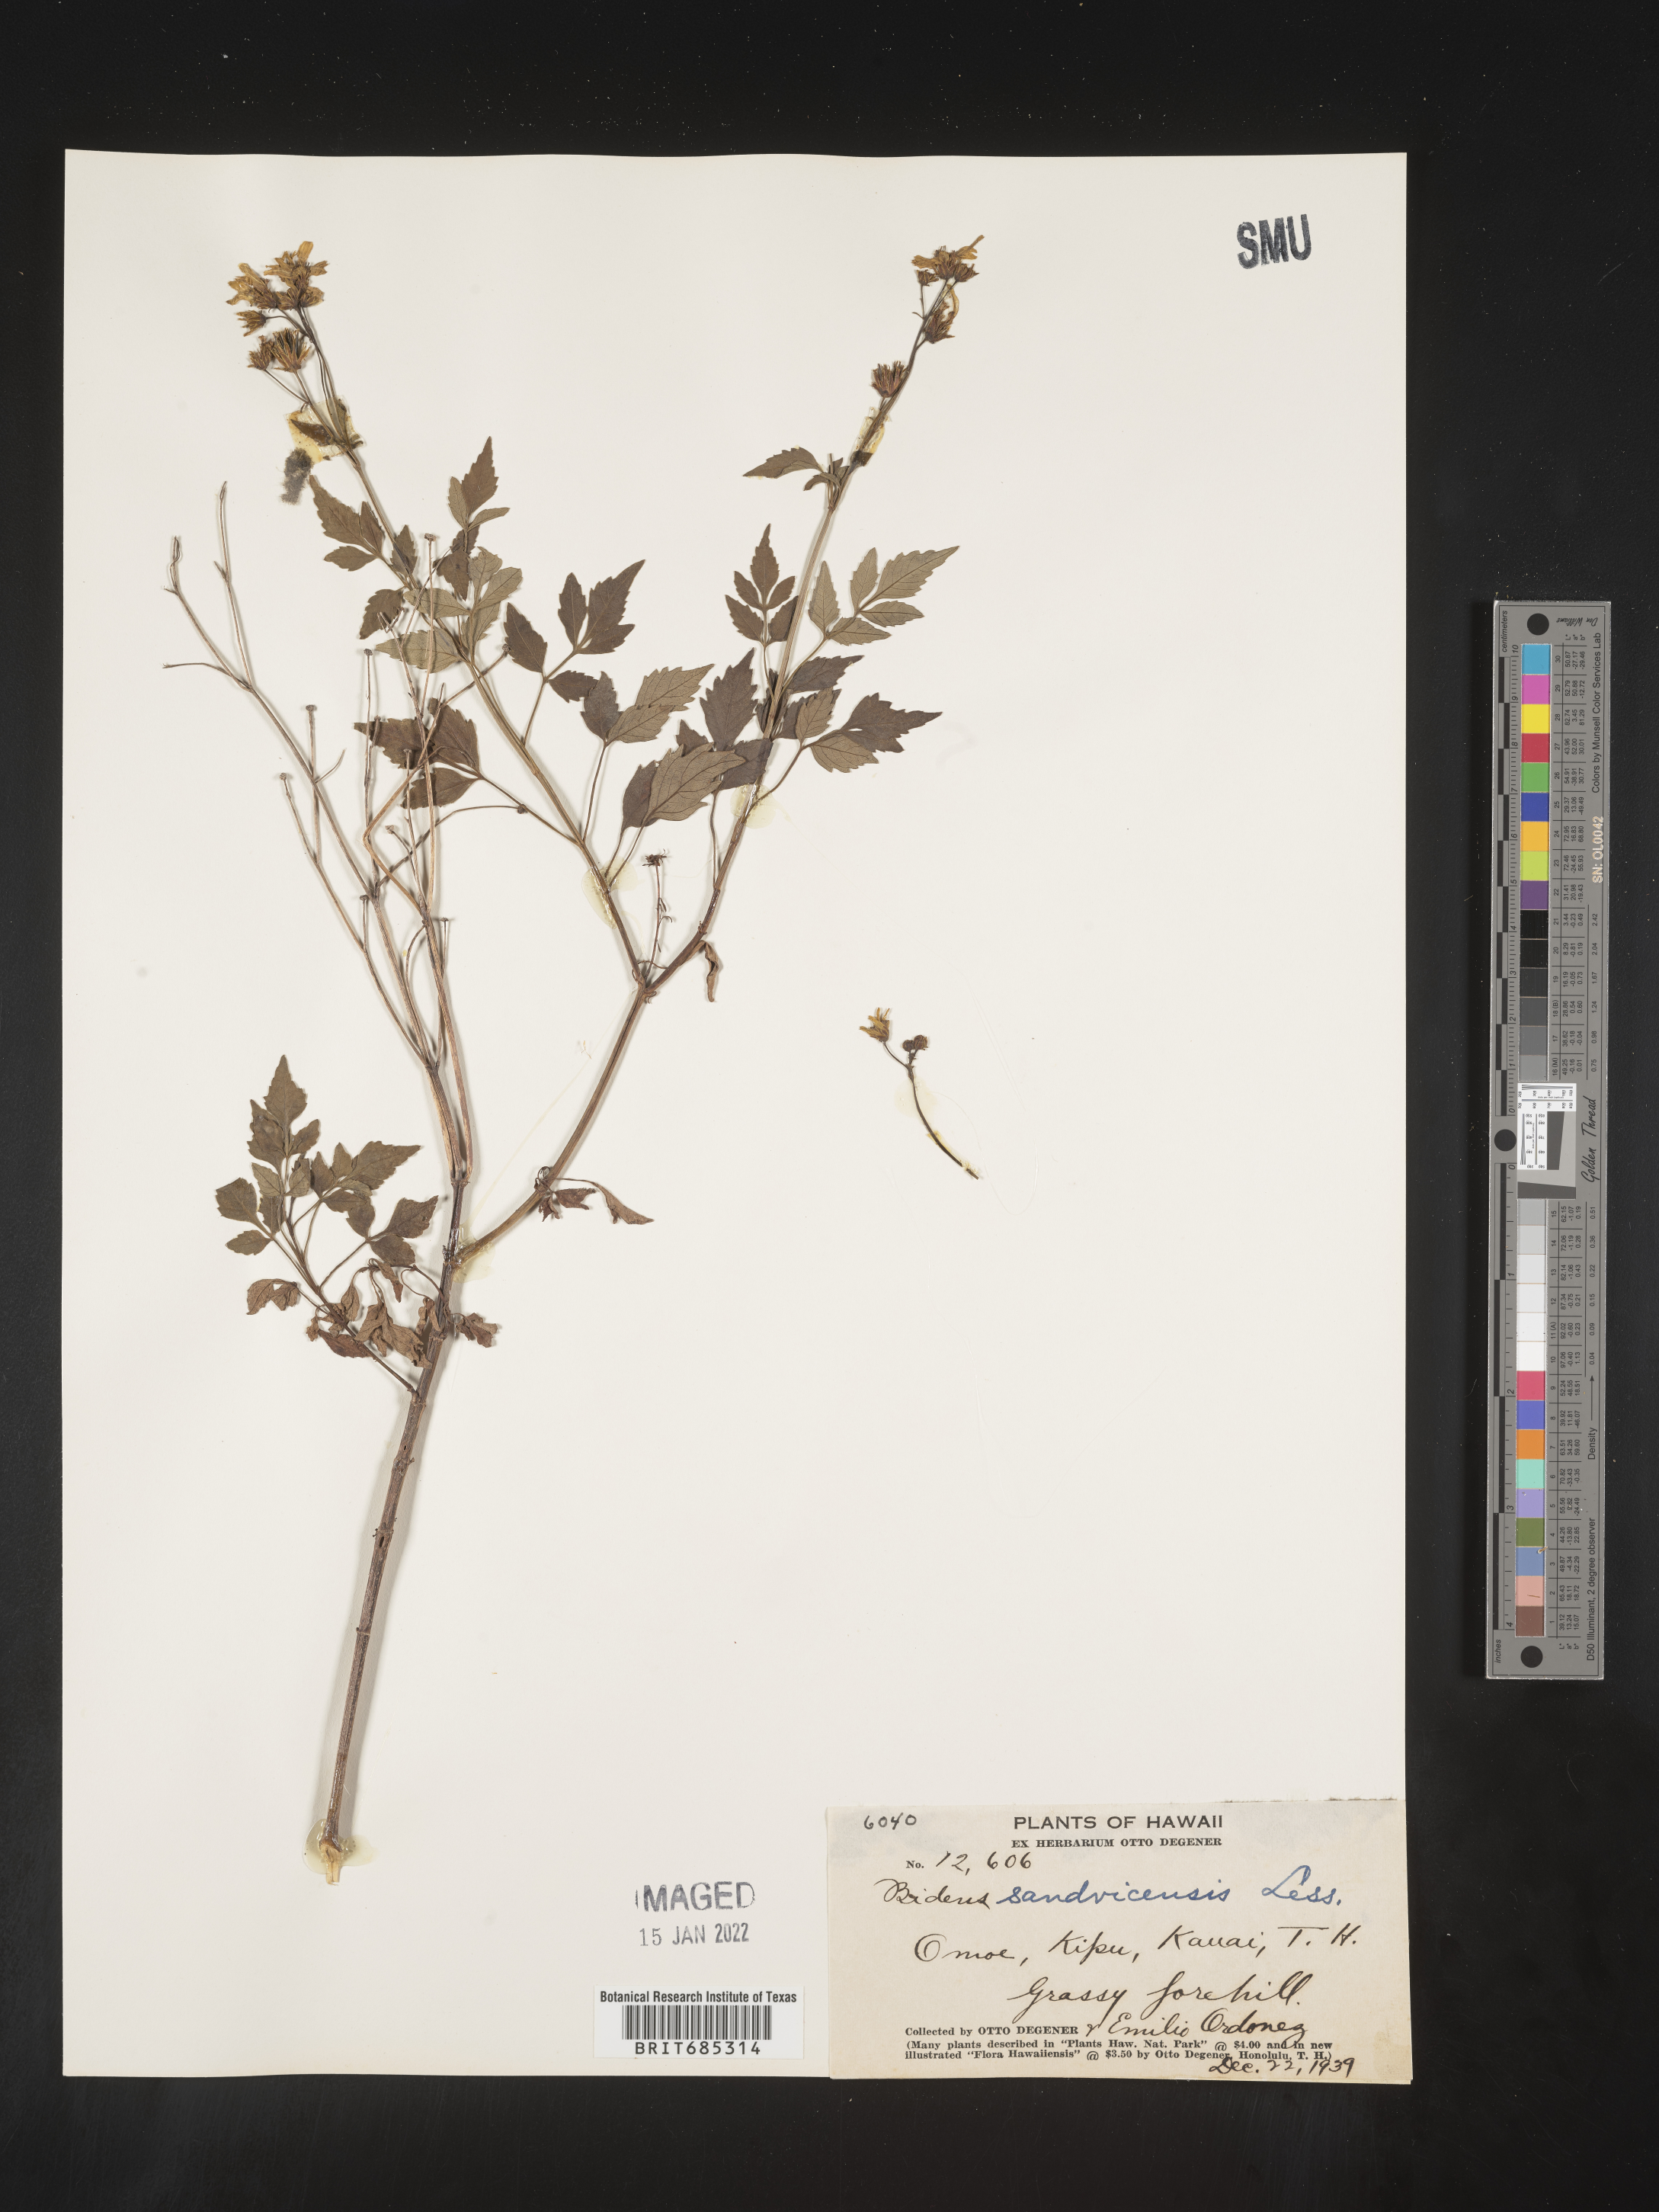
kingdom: Plantae
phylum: Tracheophyta
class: Magnoliopsida
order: Asterales
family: Asteraceae
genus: Bidens
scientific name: Bidens
